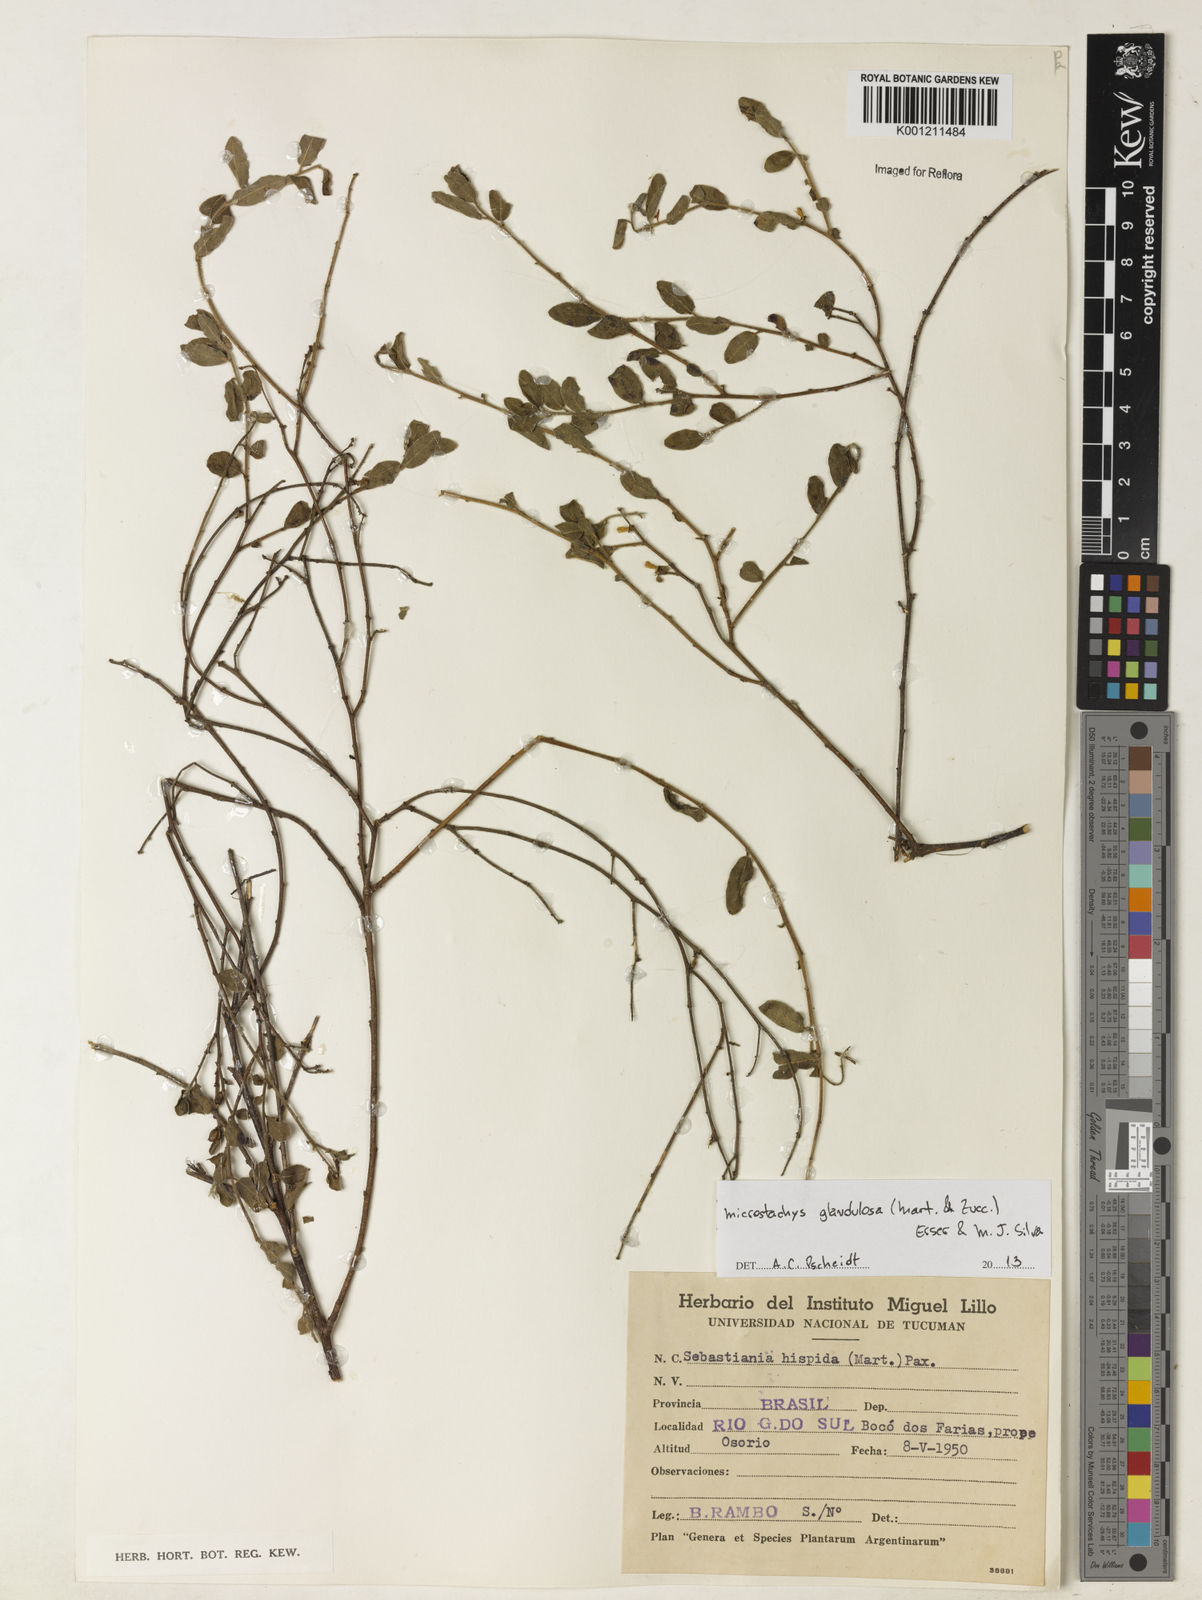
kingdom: Plantae
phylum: Tracheophyta
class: Magnoliopsida
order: Malpighiales
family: Euphorbiaceae
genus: Microstachys
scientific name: Microstachys glandulosa
